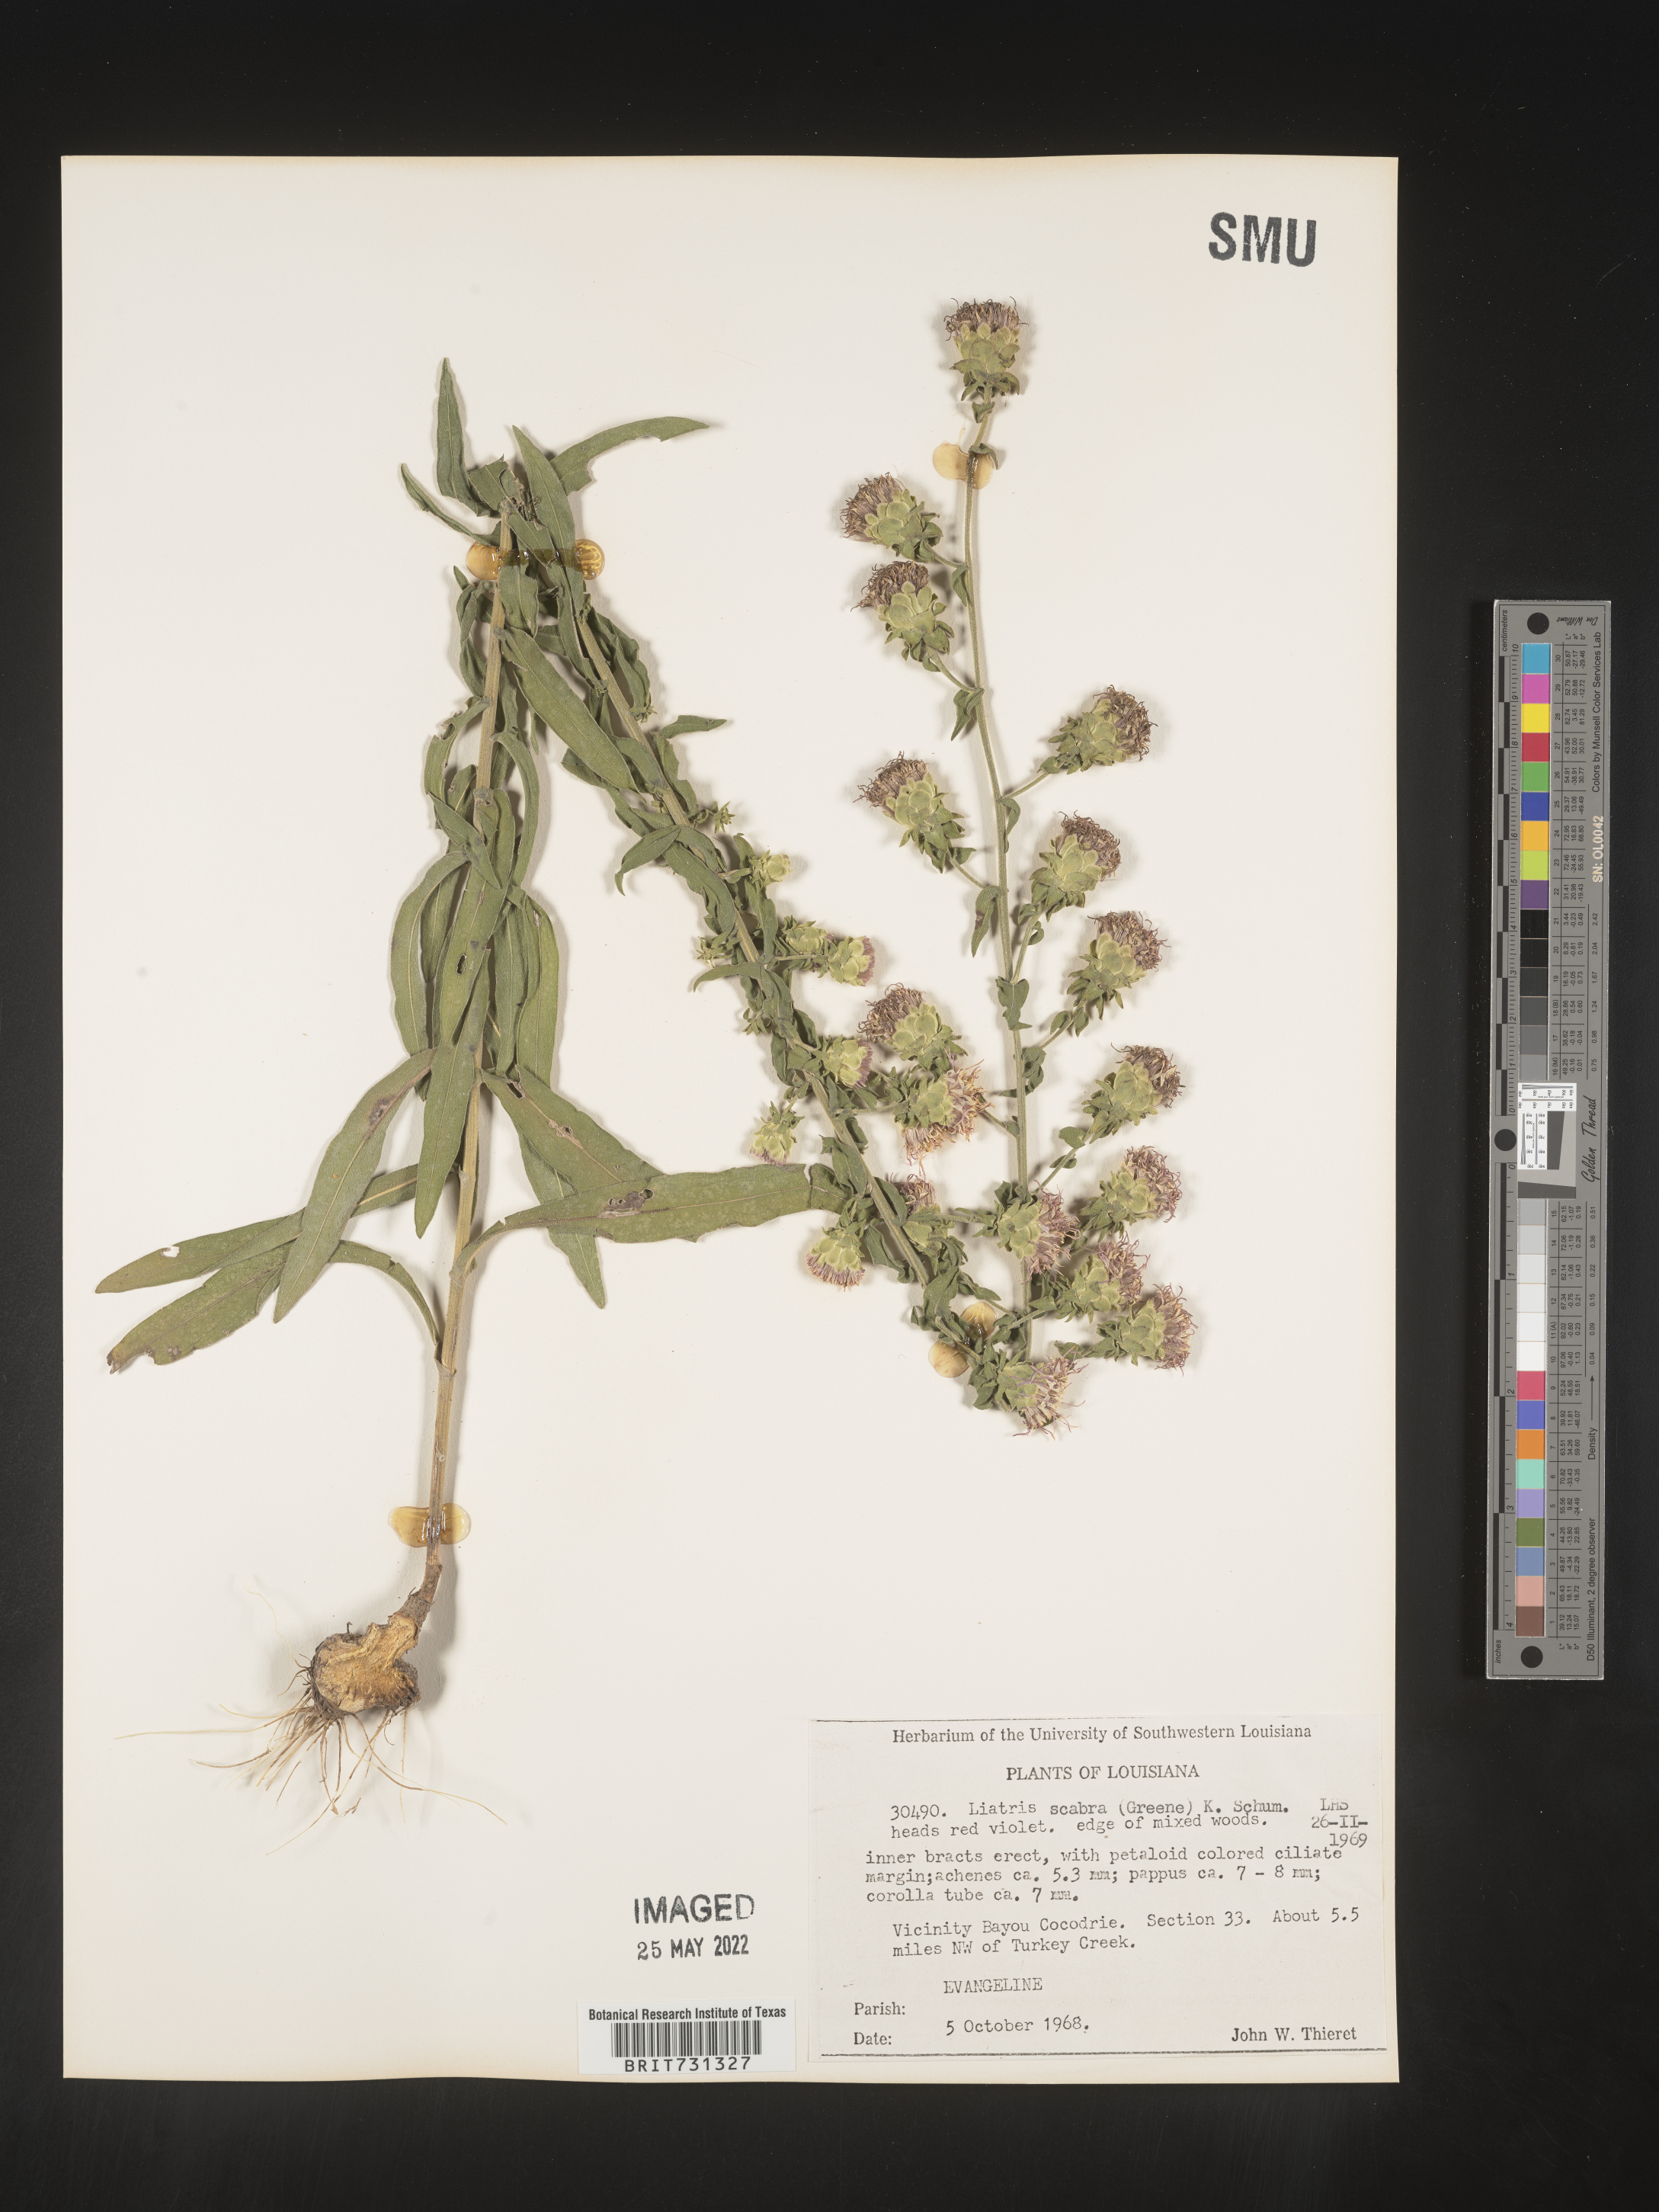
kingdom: Plantae
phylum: Tracheophyta
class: Magnoliopsida
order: Asterales
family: Asteraceae
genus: Liatris
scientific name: Liatris squarrulosa
